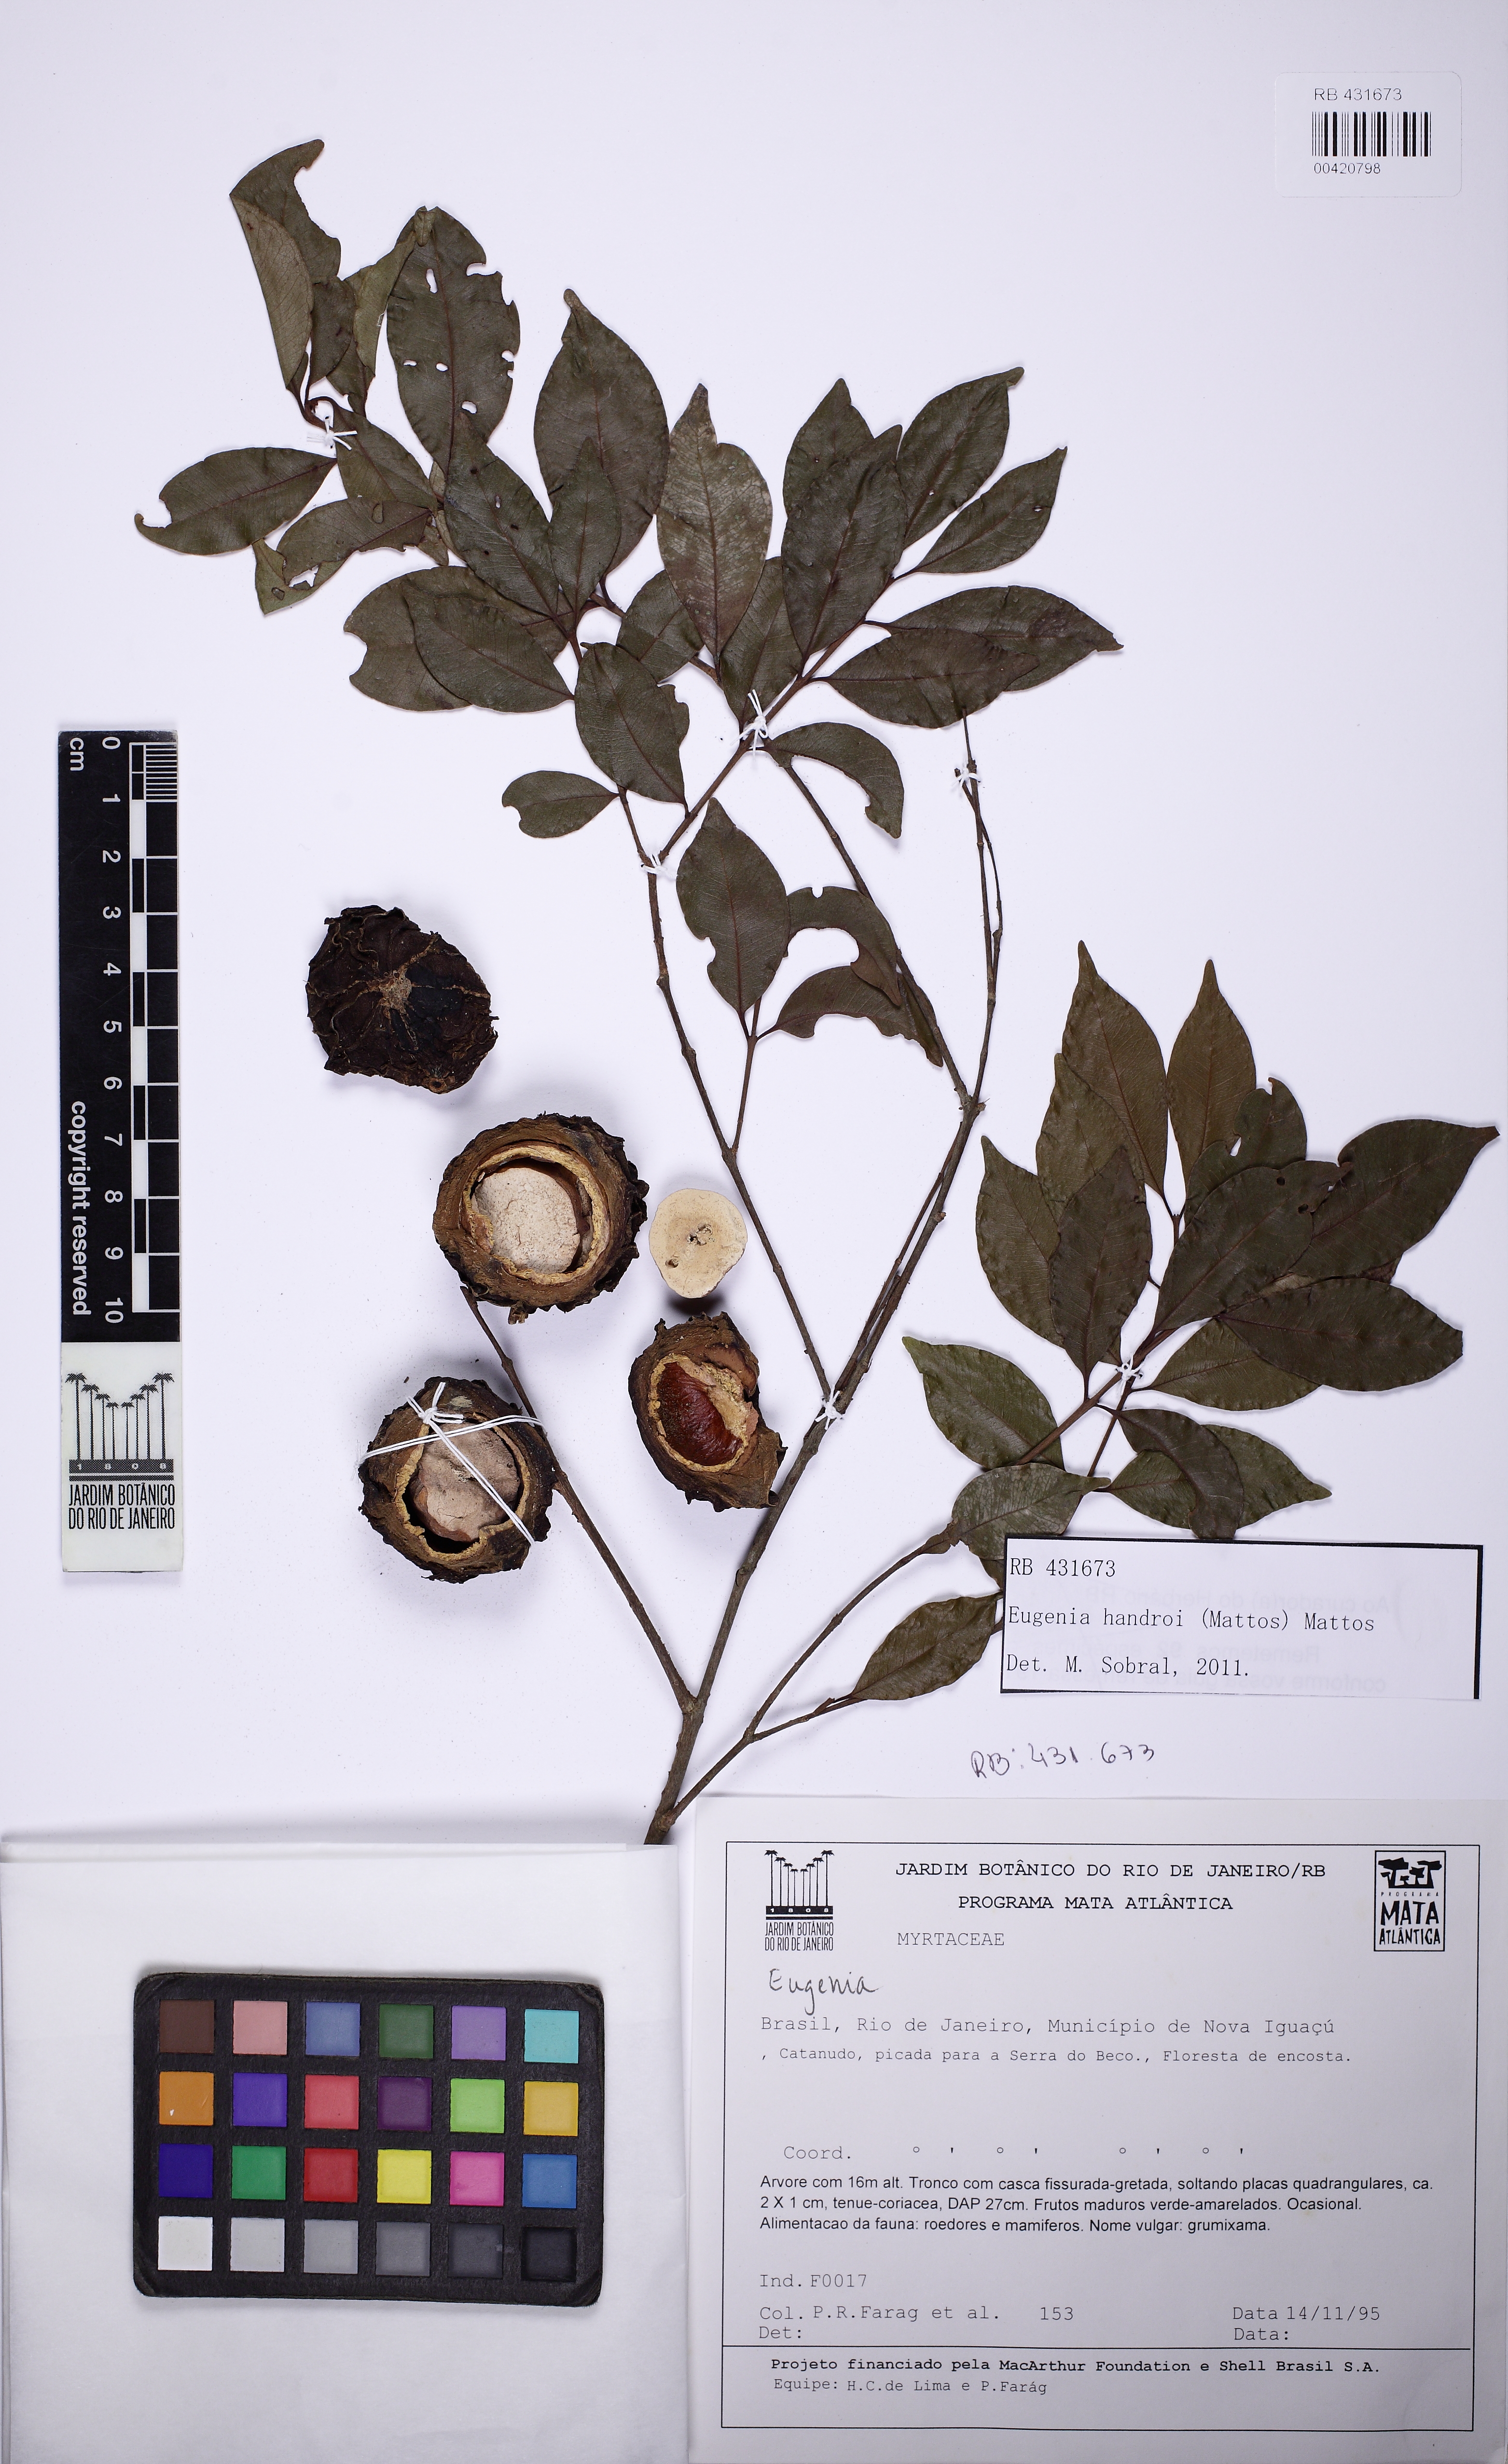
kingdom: Plantae
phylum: Tracheophyta
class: Magnoliopsida
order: Myrtales
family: Myrtaceae
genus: Eugenia
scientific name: Eugenia handroi
